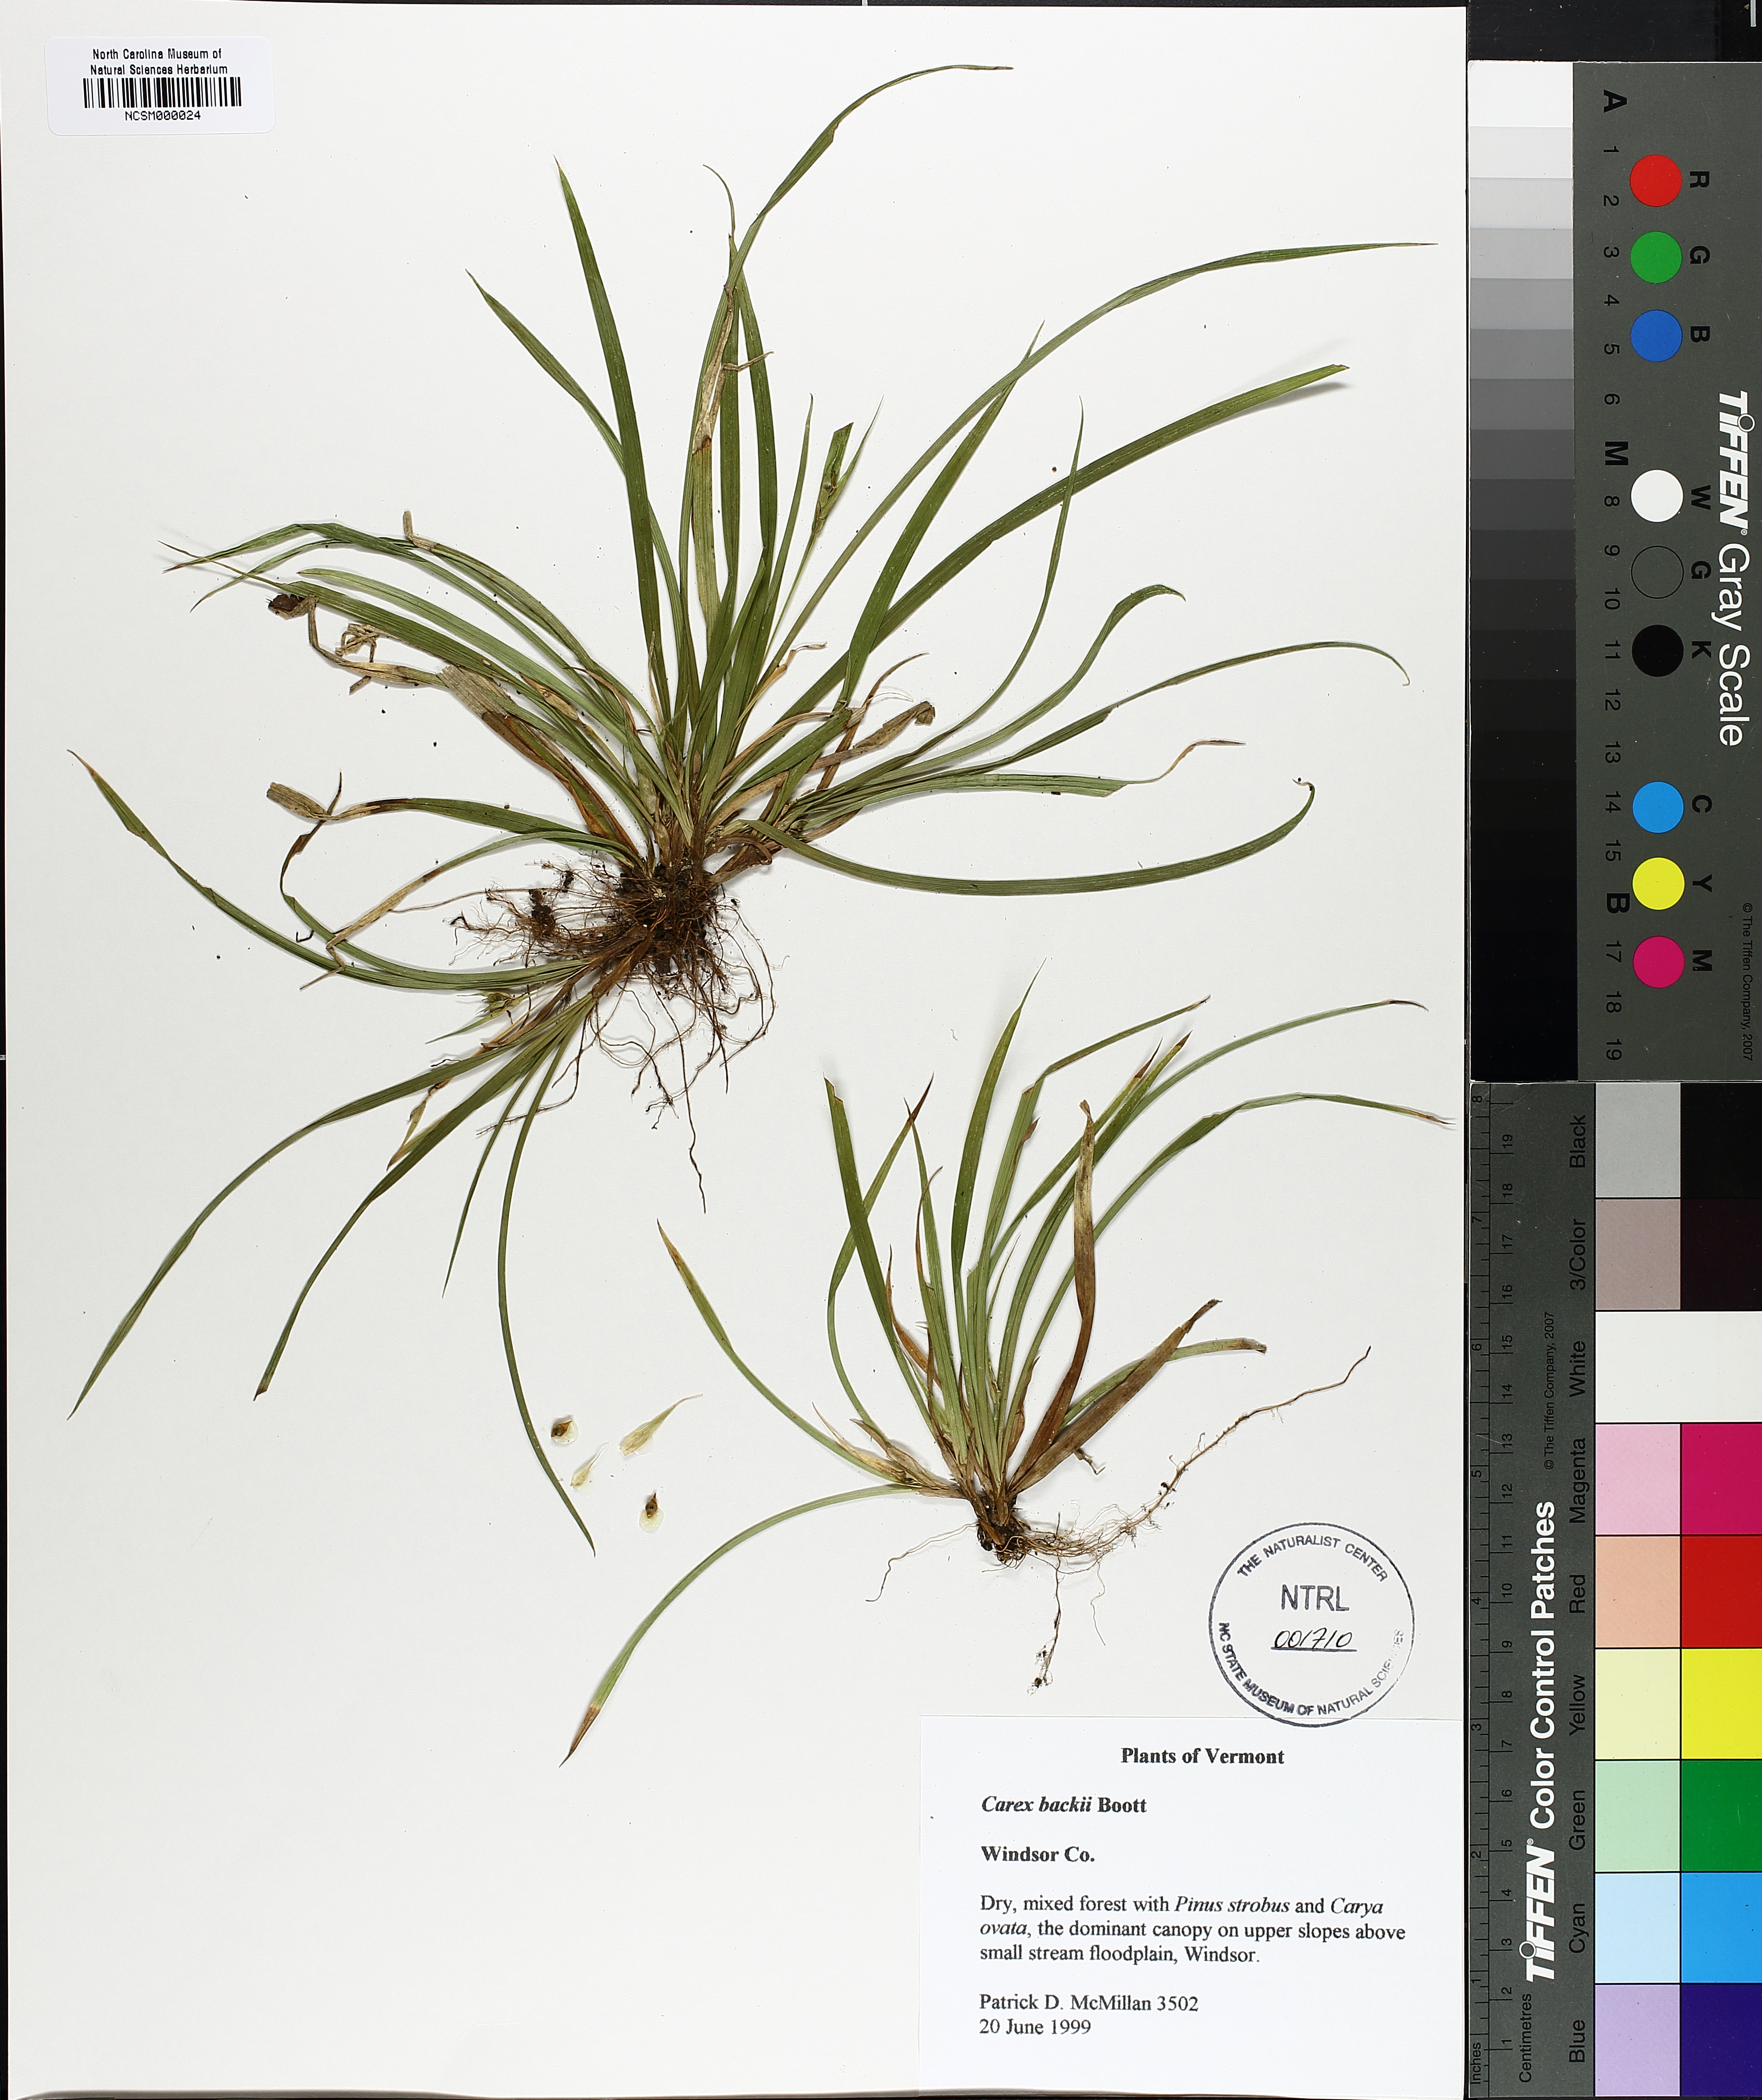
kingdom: Plantae
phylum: Tracheophyta
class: Liliopsida
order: Poales
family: Cyperaceae
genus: Carex
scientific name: Carex backii
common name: Back's sedge
